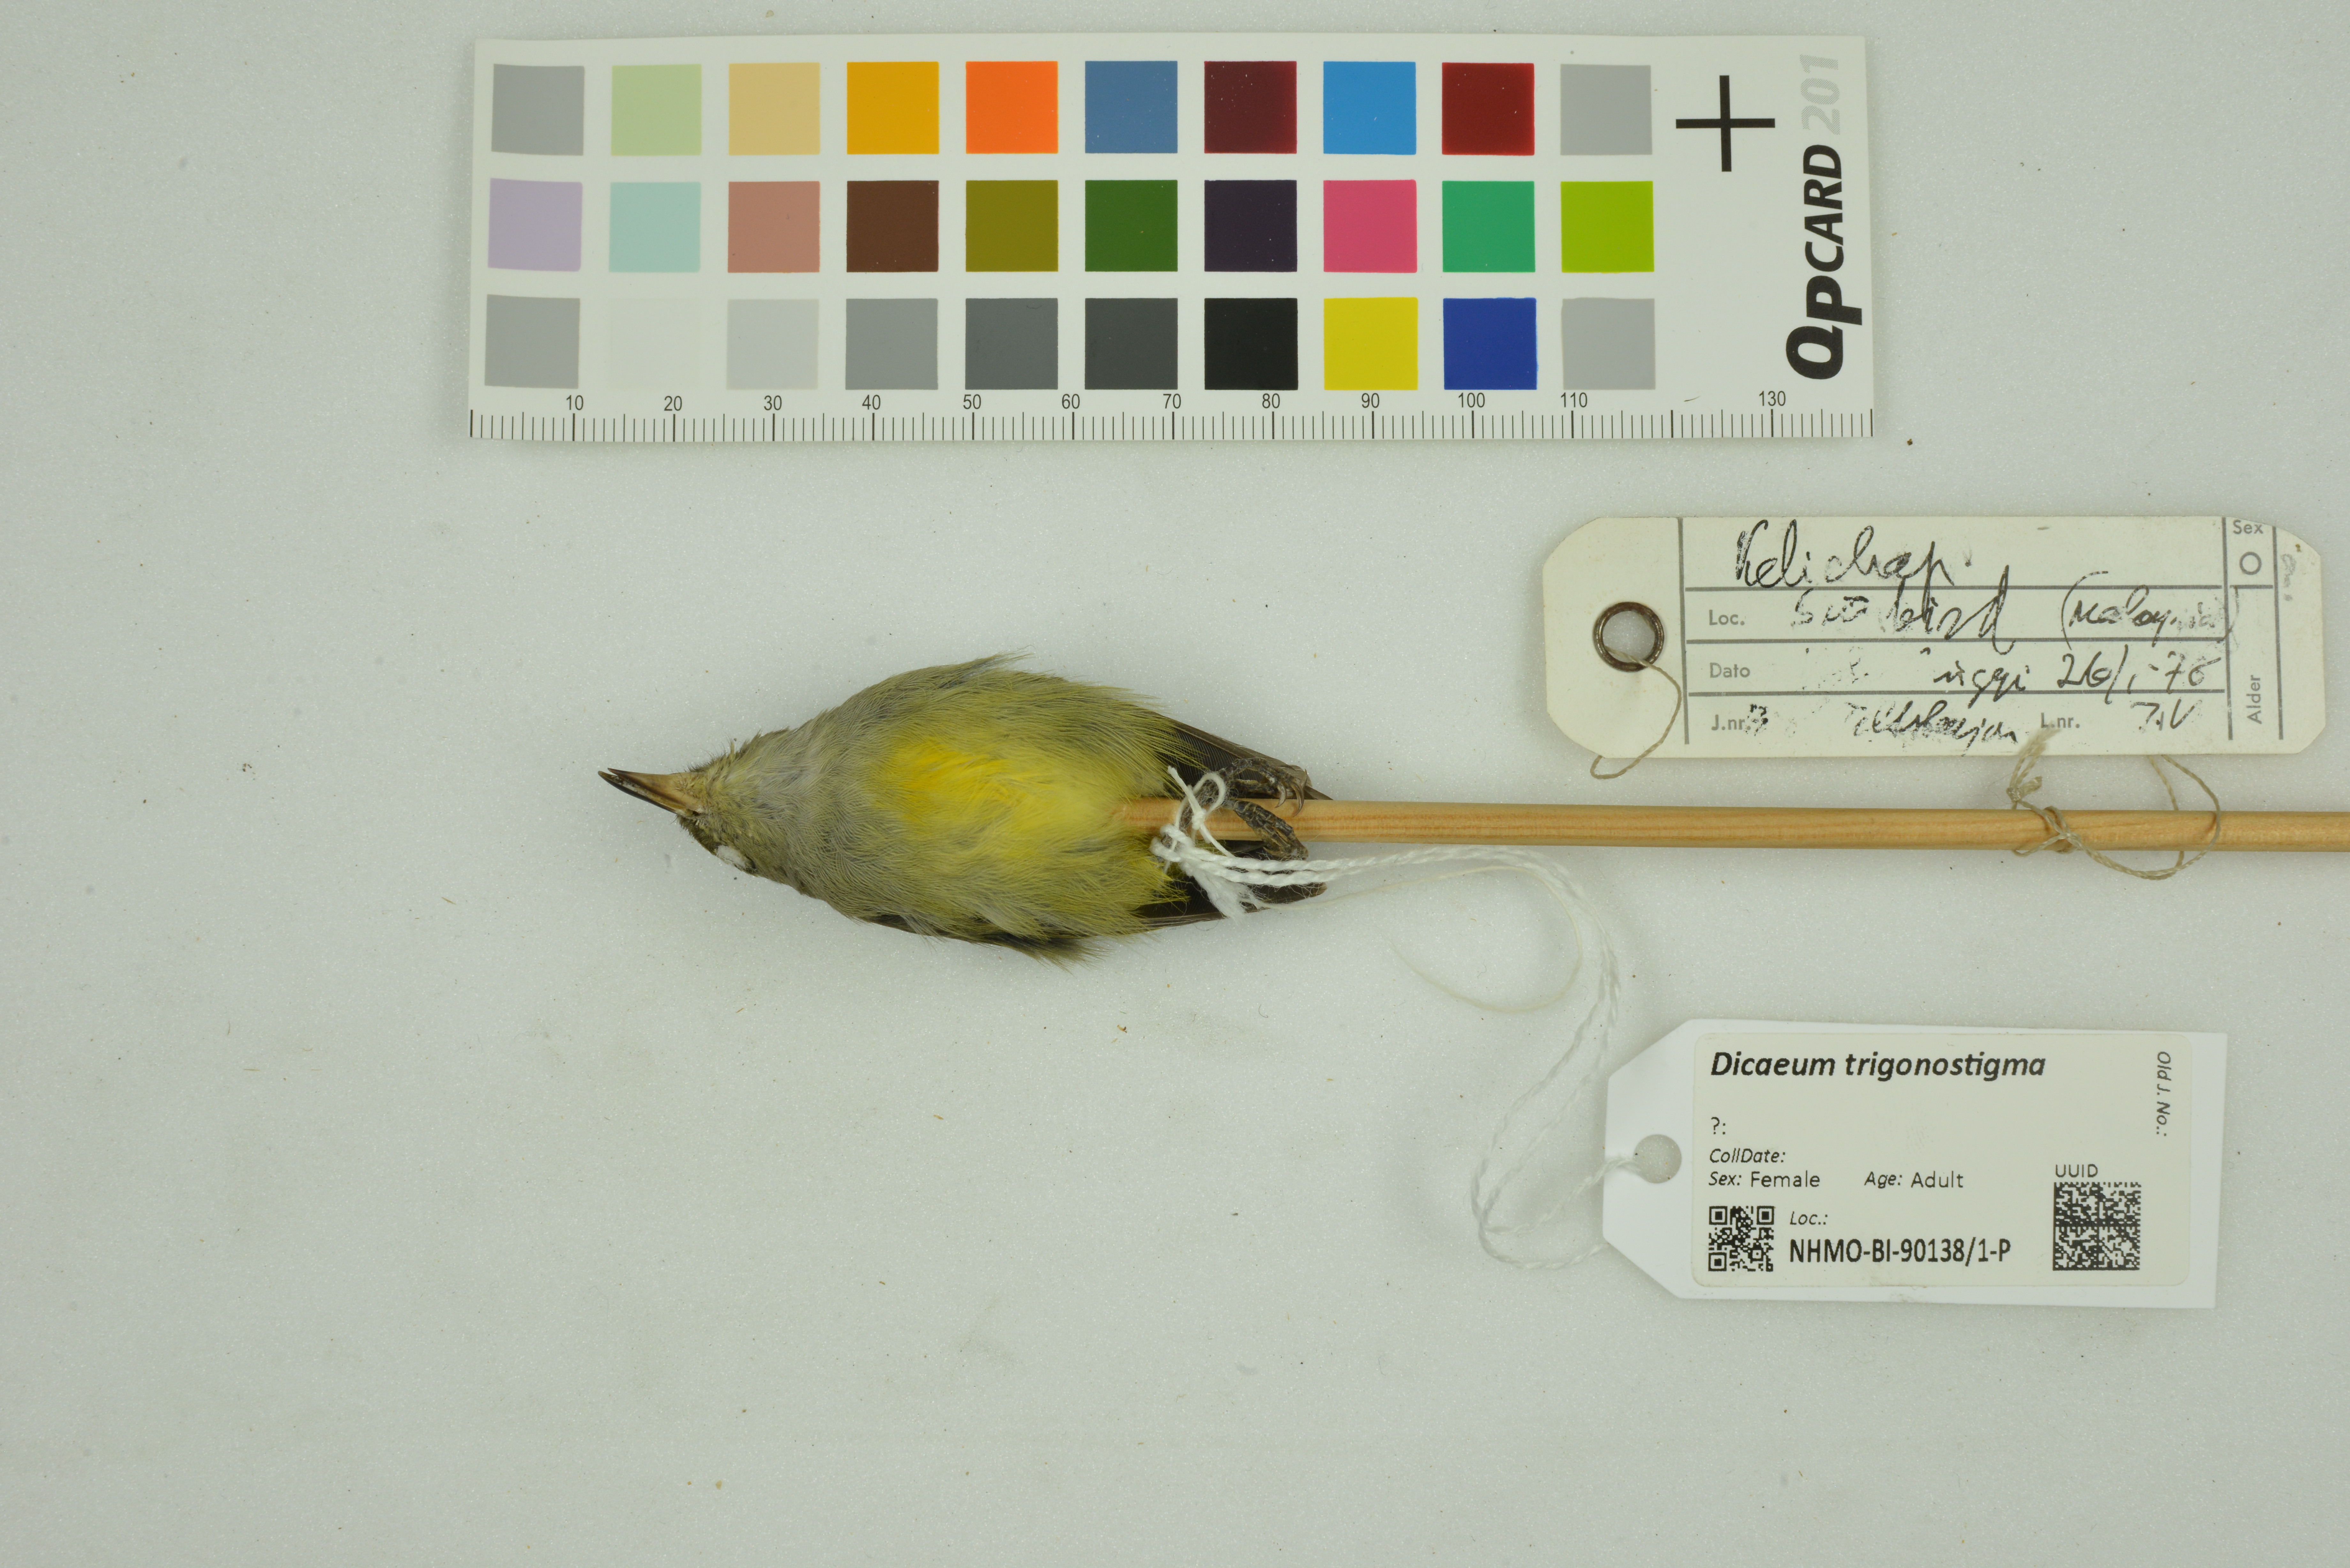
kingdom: Animalia
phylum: Chordata
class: Aves
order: Passeriformes
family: Dicaeidae
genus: Dicaeum
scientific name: Dicaeum trigonostigma
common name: Orange-bellied flowerpecker
